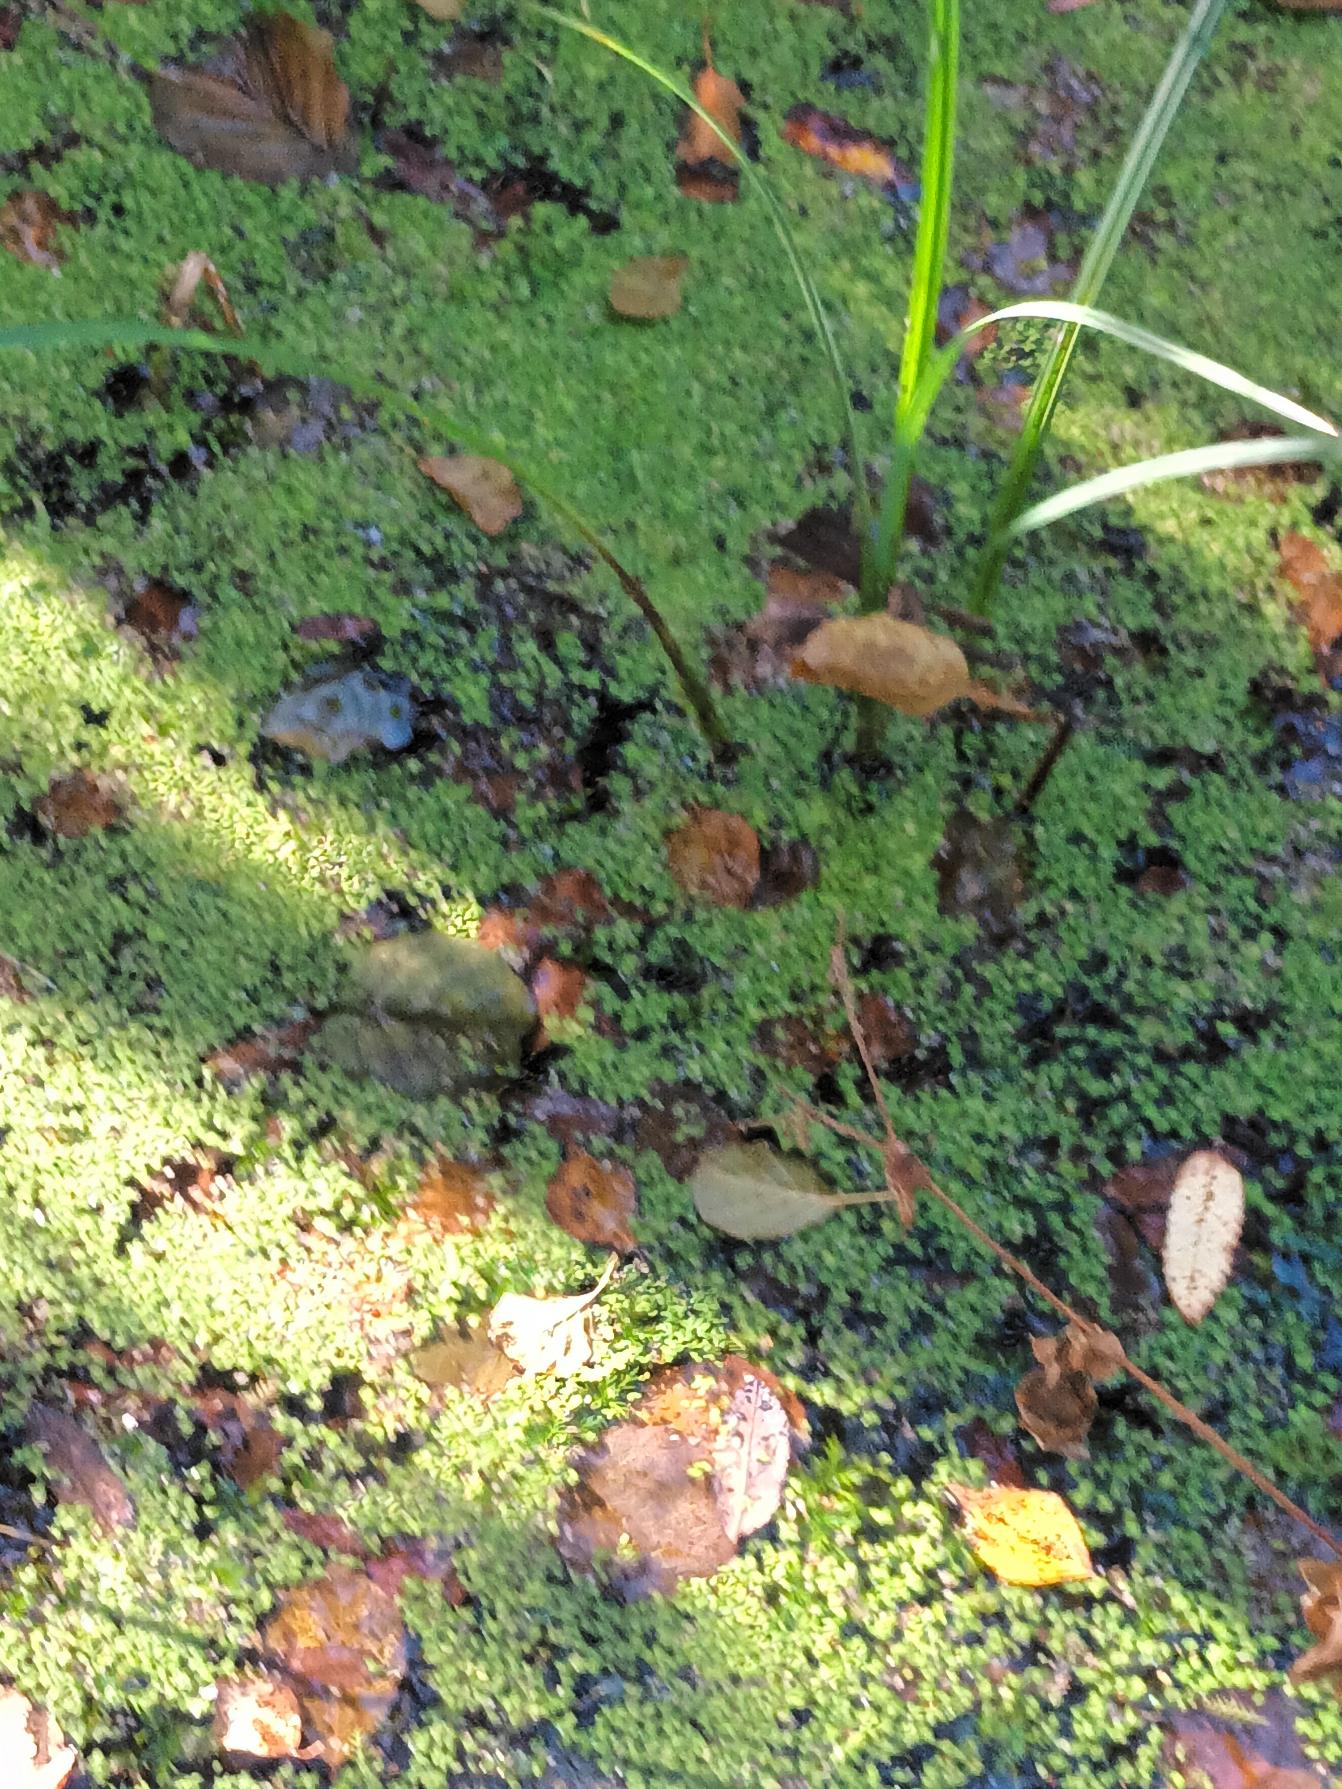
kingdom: Plantae
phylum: Tracheophyta
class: Liliopsida
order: Alismatales
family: Araceae
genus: Lemna
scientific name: Lemna minor
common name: Liden andemad
